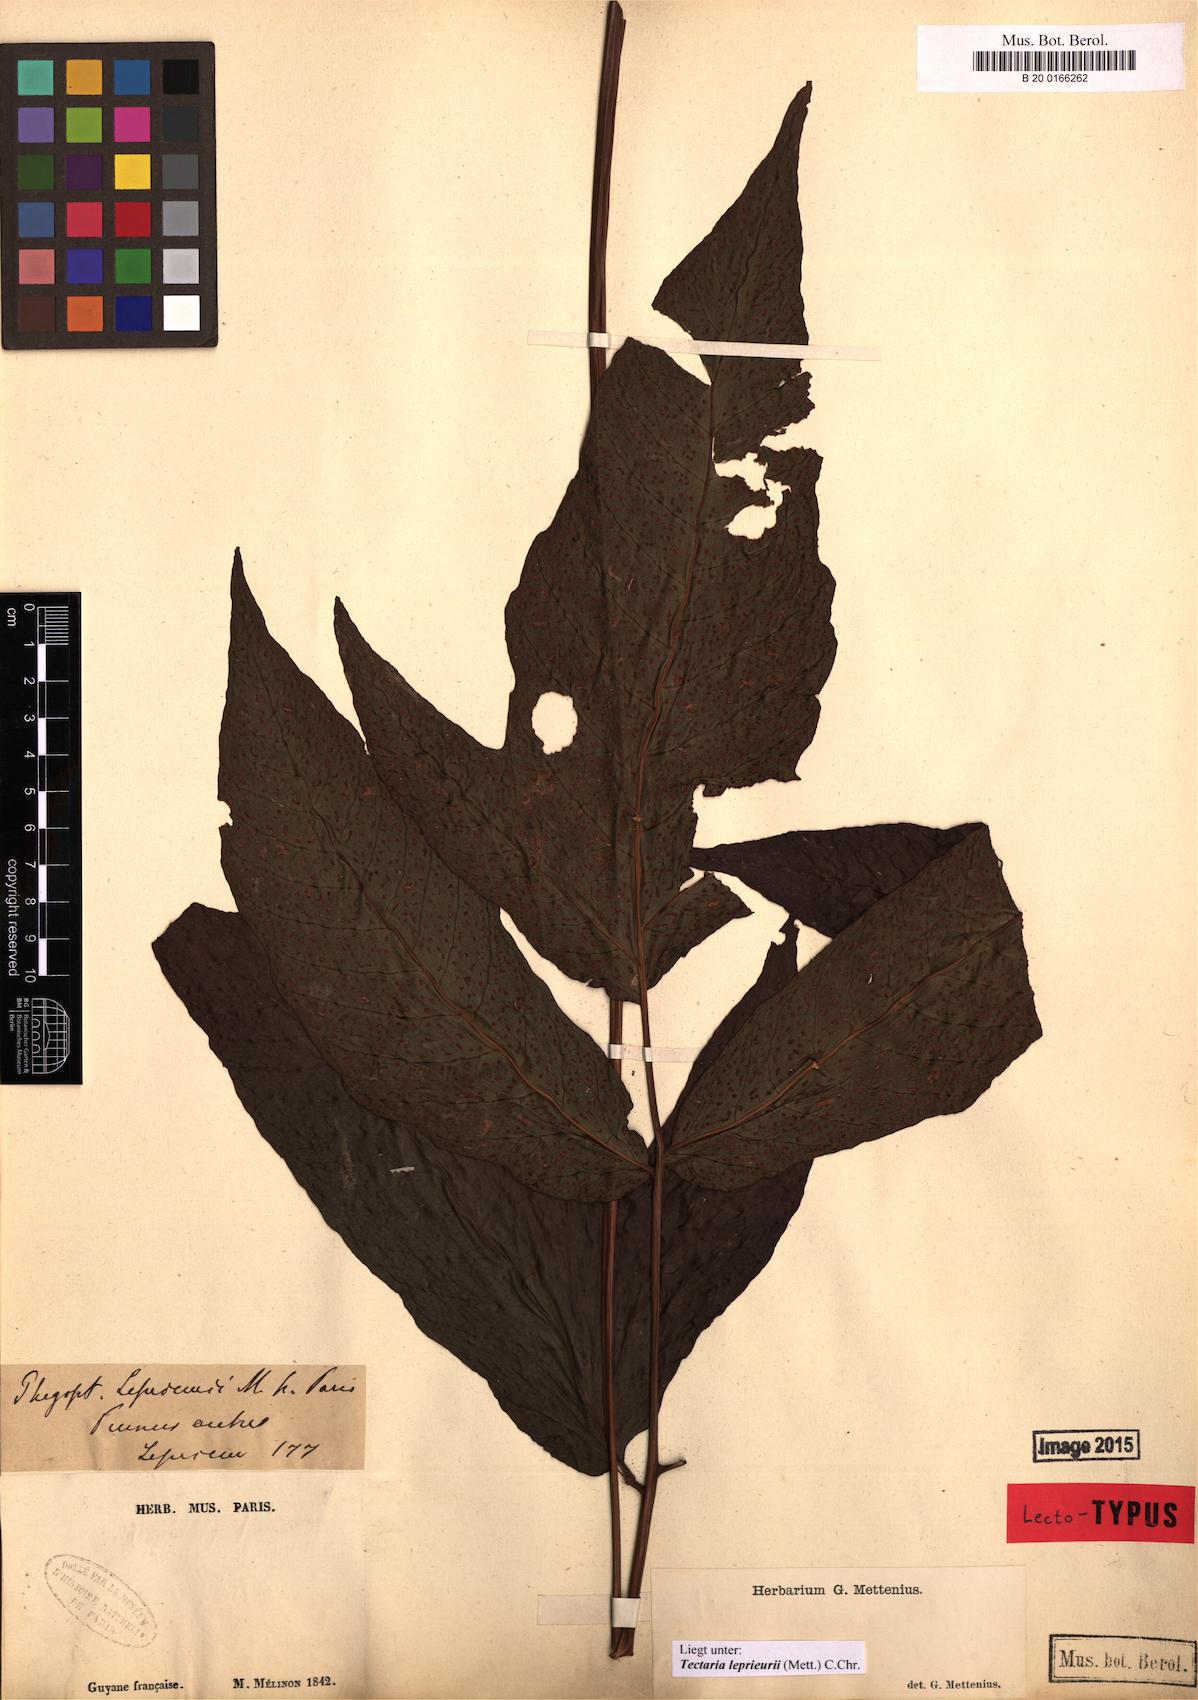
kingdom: Plantae
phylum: Tracheophyta
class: Polypodiopsida
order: Polypodiales
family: Tectariaceae
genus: Tectaria
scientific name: Tectaria leprieurii
